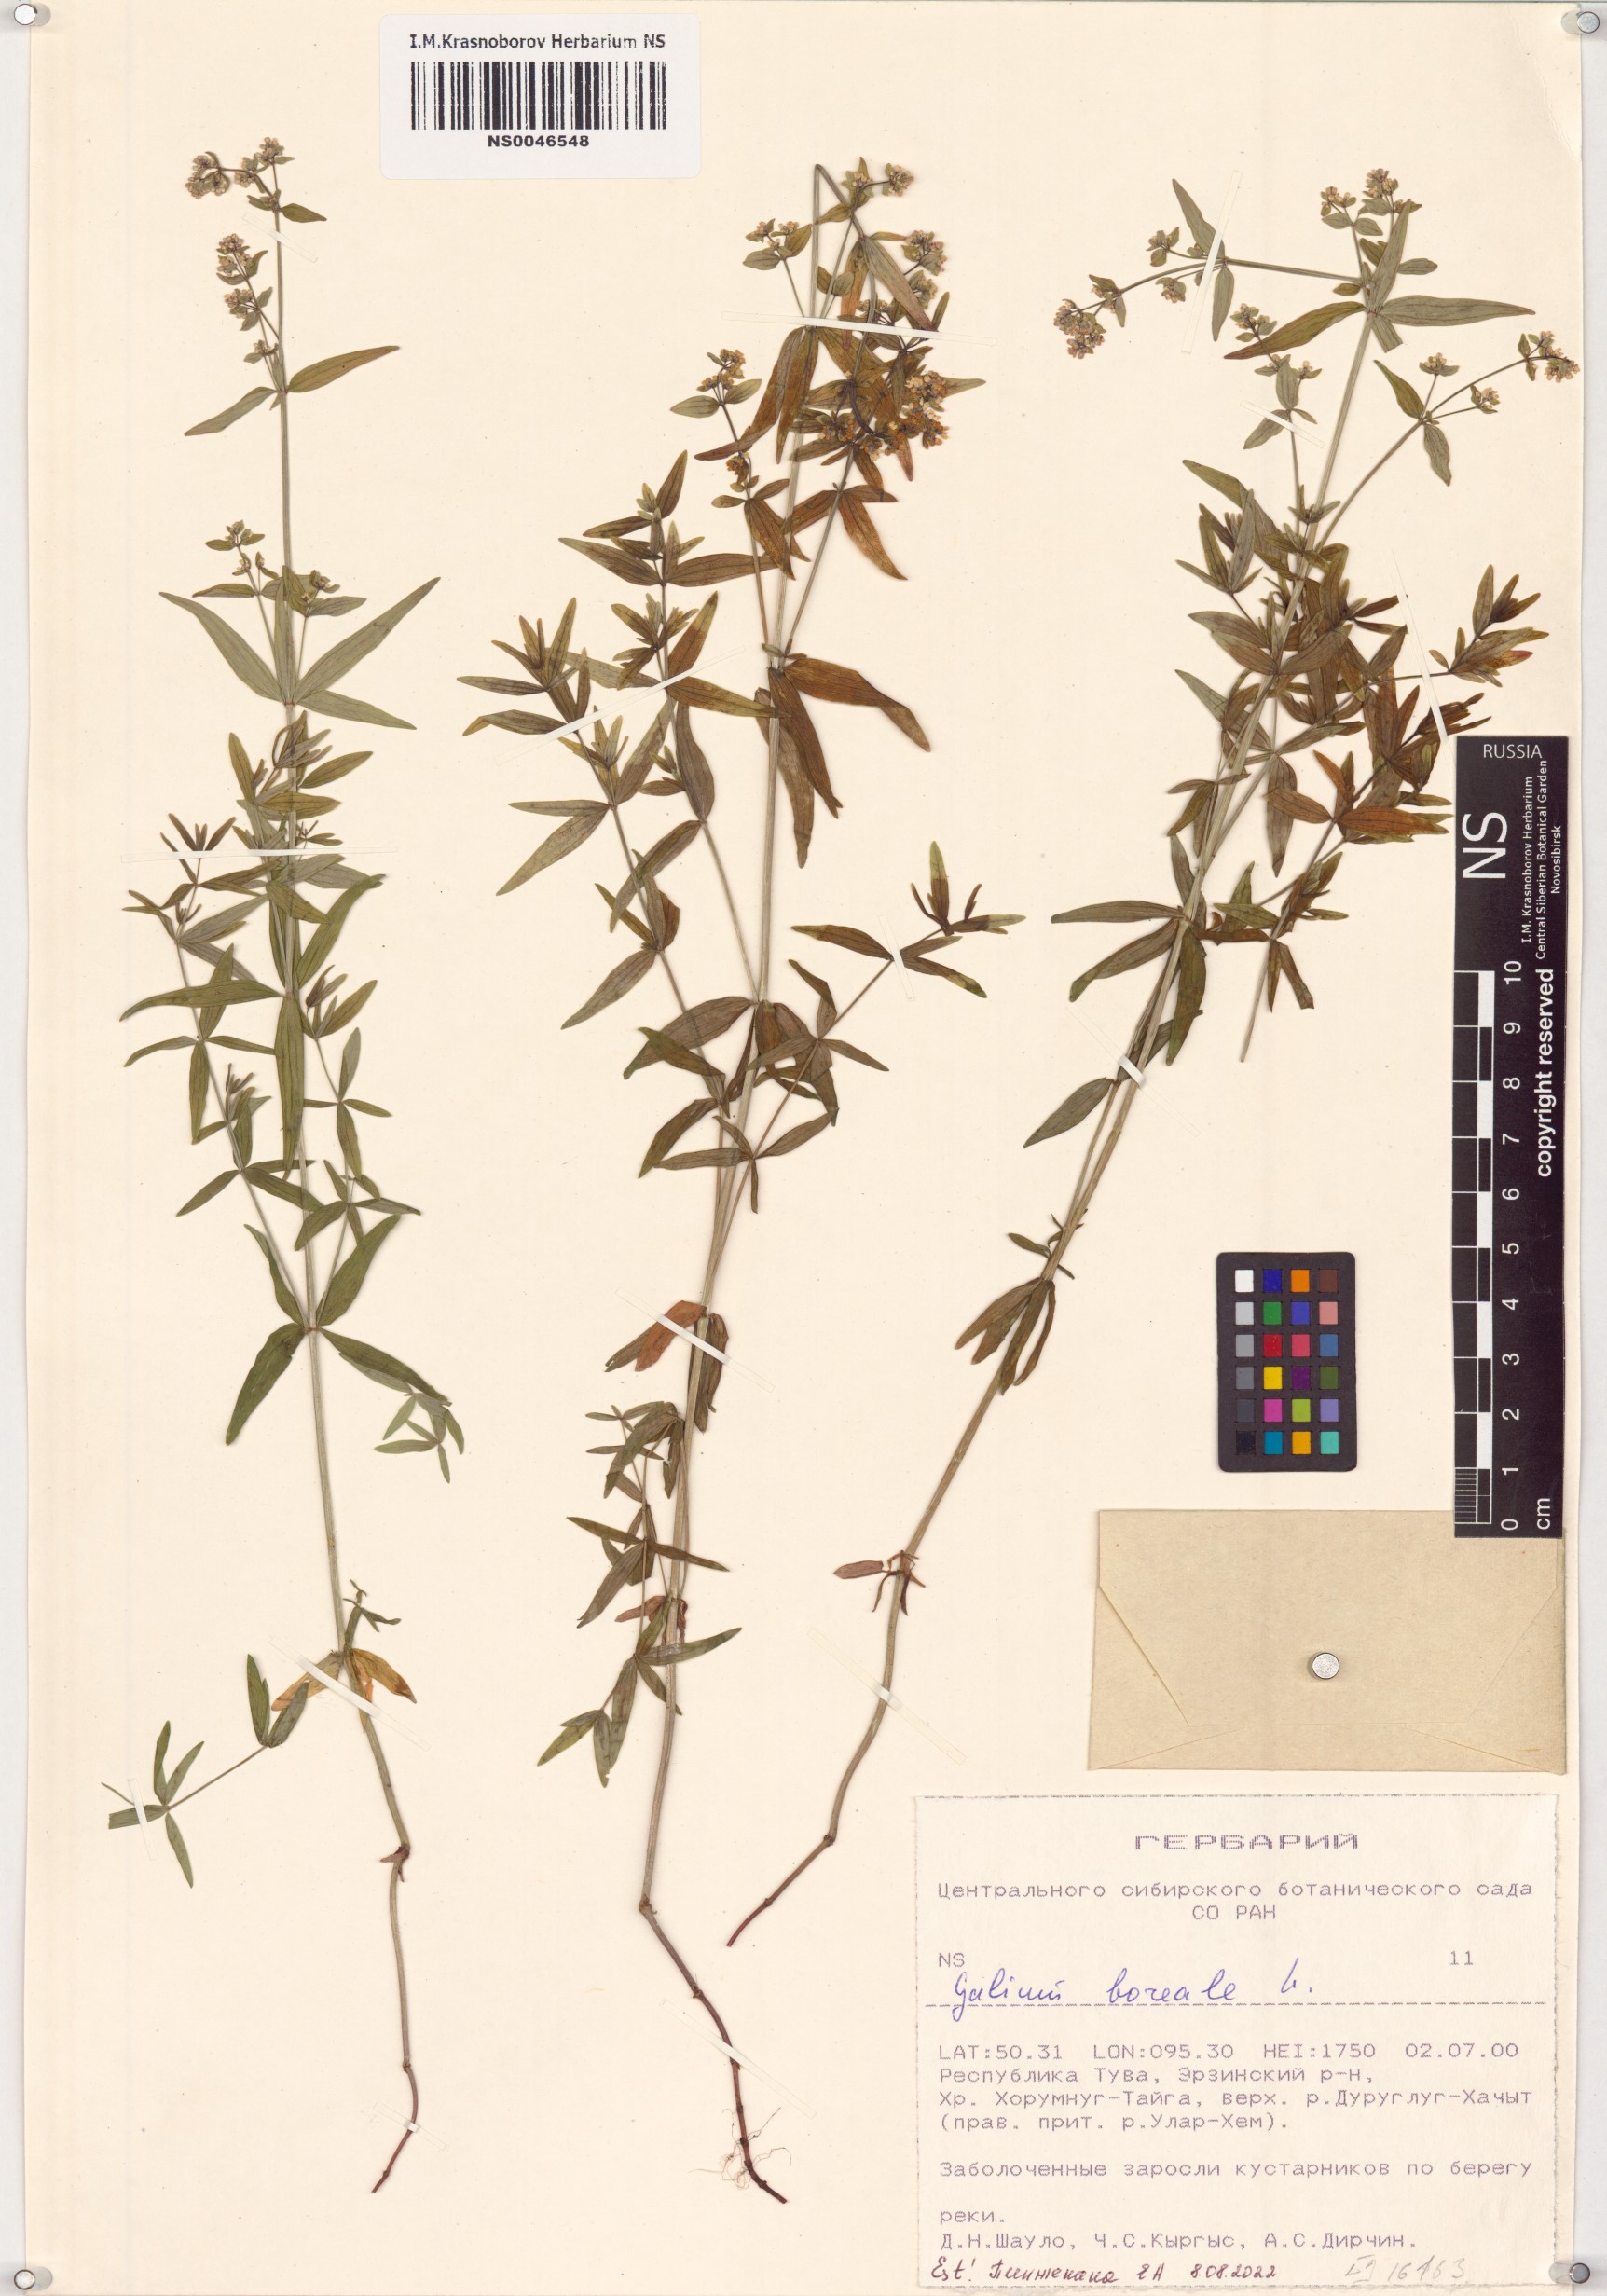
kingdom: Plantae
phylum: Tracheophyta
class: Magnoliopsida
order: Gentianales
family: Rubiaceae
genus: Galium
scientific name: Galium boreale
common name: Northern bedstraw
